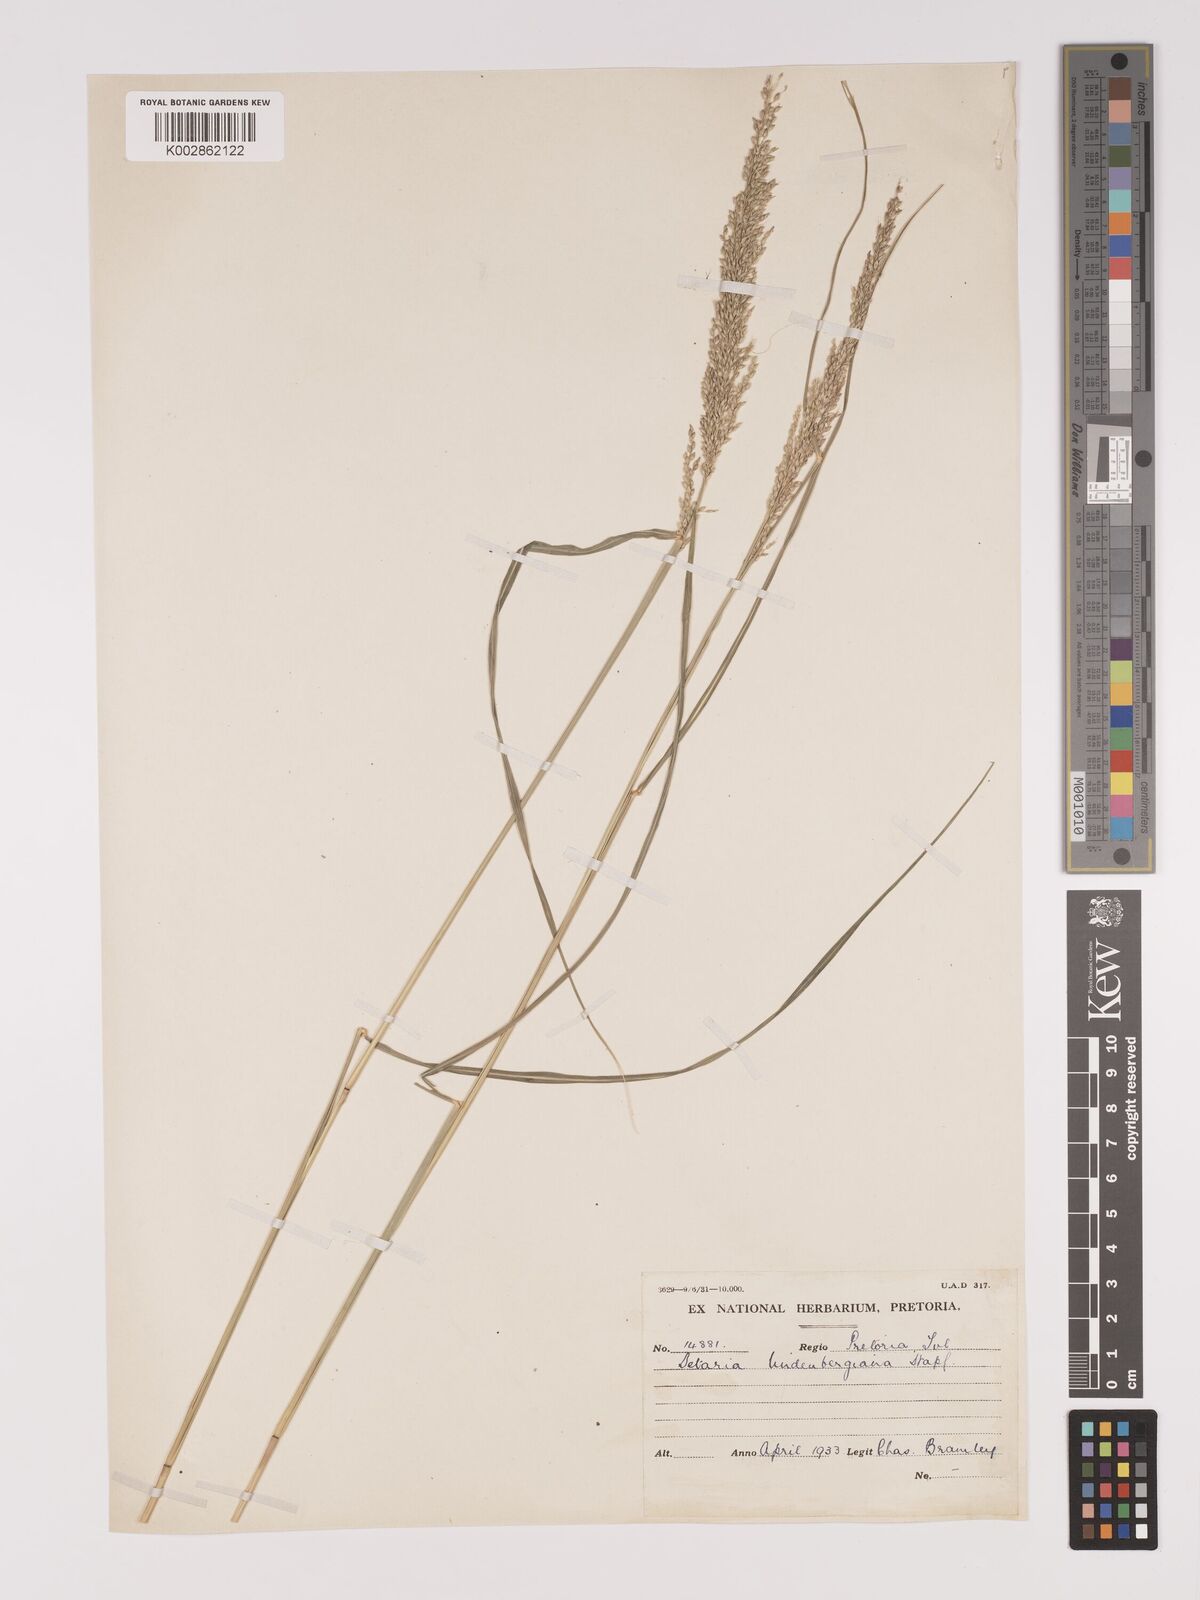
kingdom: Plantae
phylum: Tracheophyta
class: Liliopsida
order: Poales
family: Poaceae
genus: Setaria
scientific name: Setaria lindenbergiana
